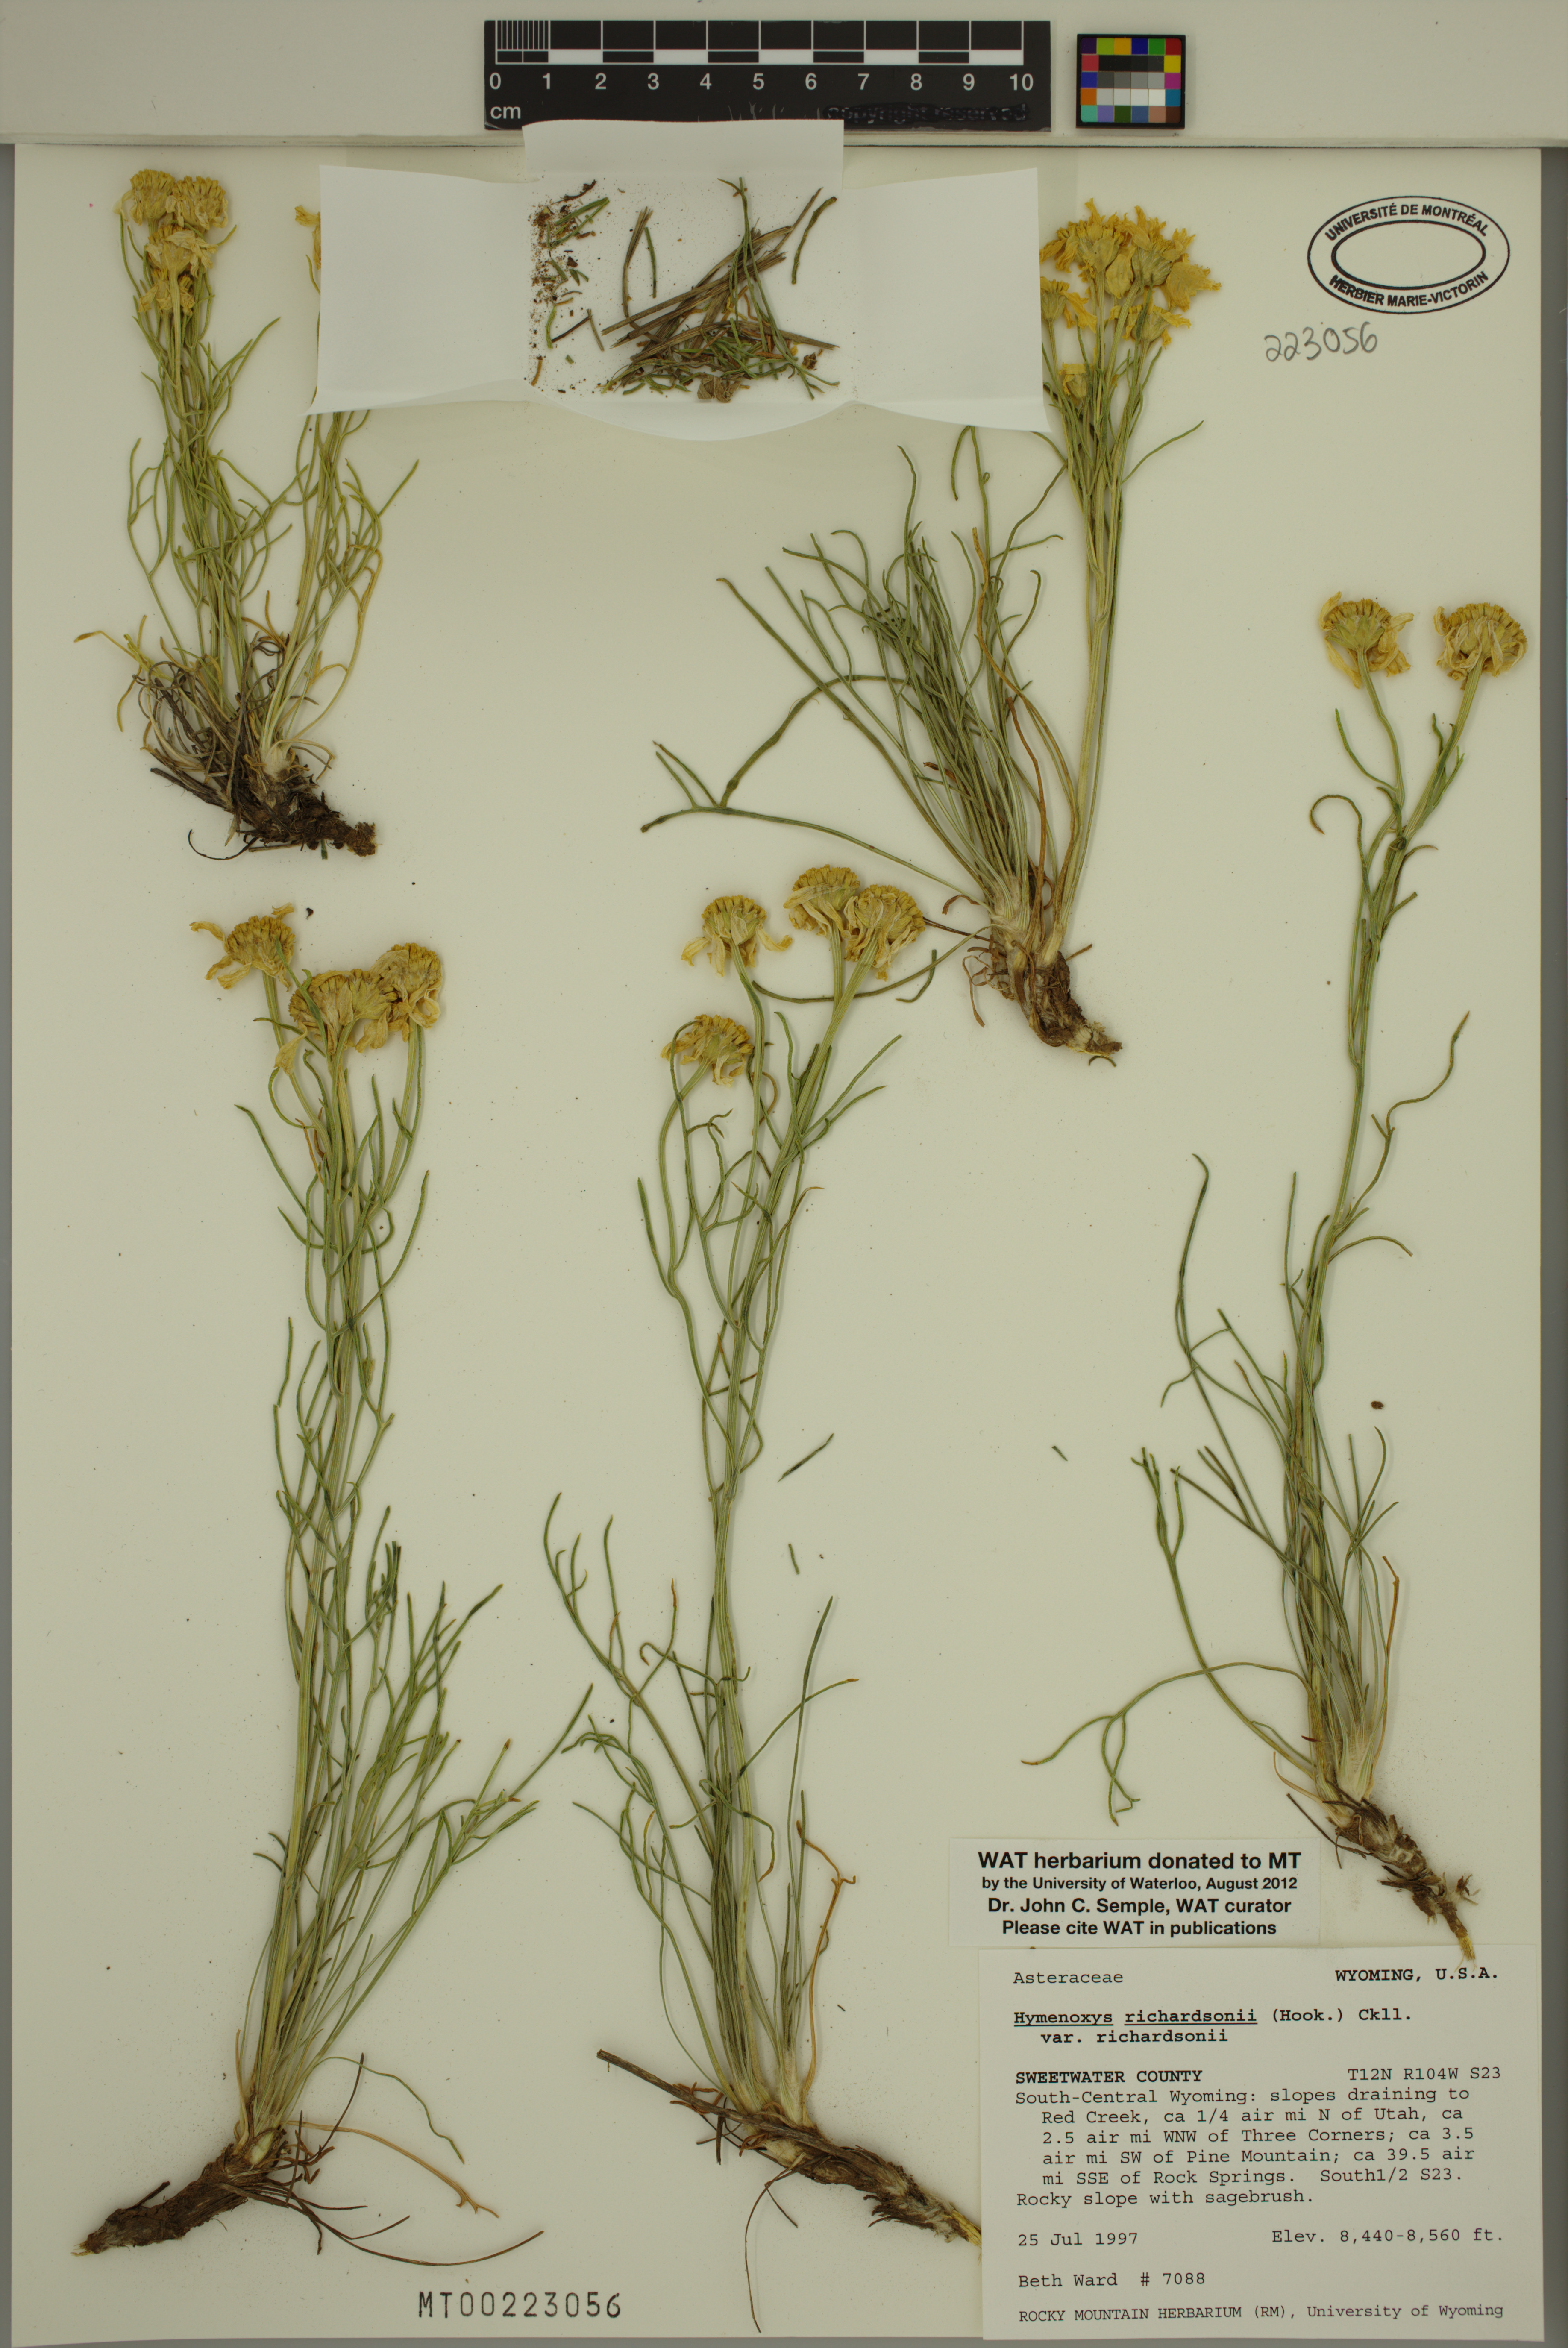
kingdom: Plantae
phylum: Tracheophyta
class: Magnoliopsida
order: Asterales
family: Asteraceae
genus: Hymenoxys
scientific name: Hymenoxys richardsonii
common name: Pingue rubberweed
